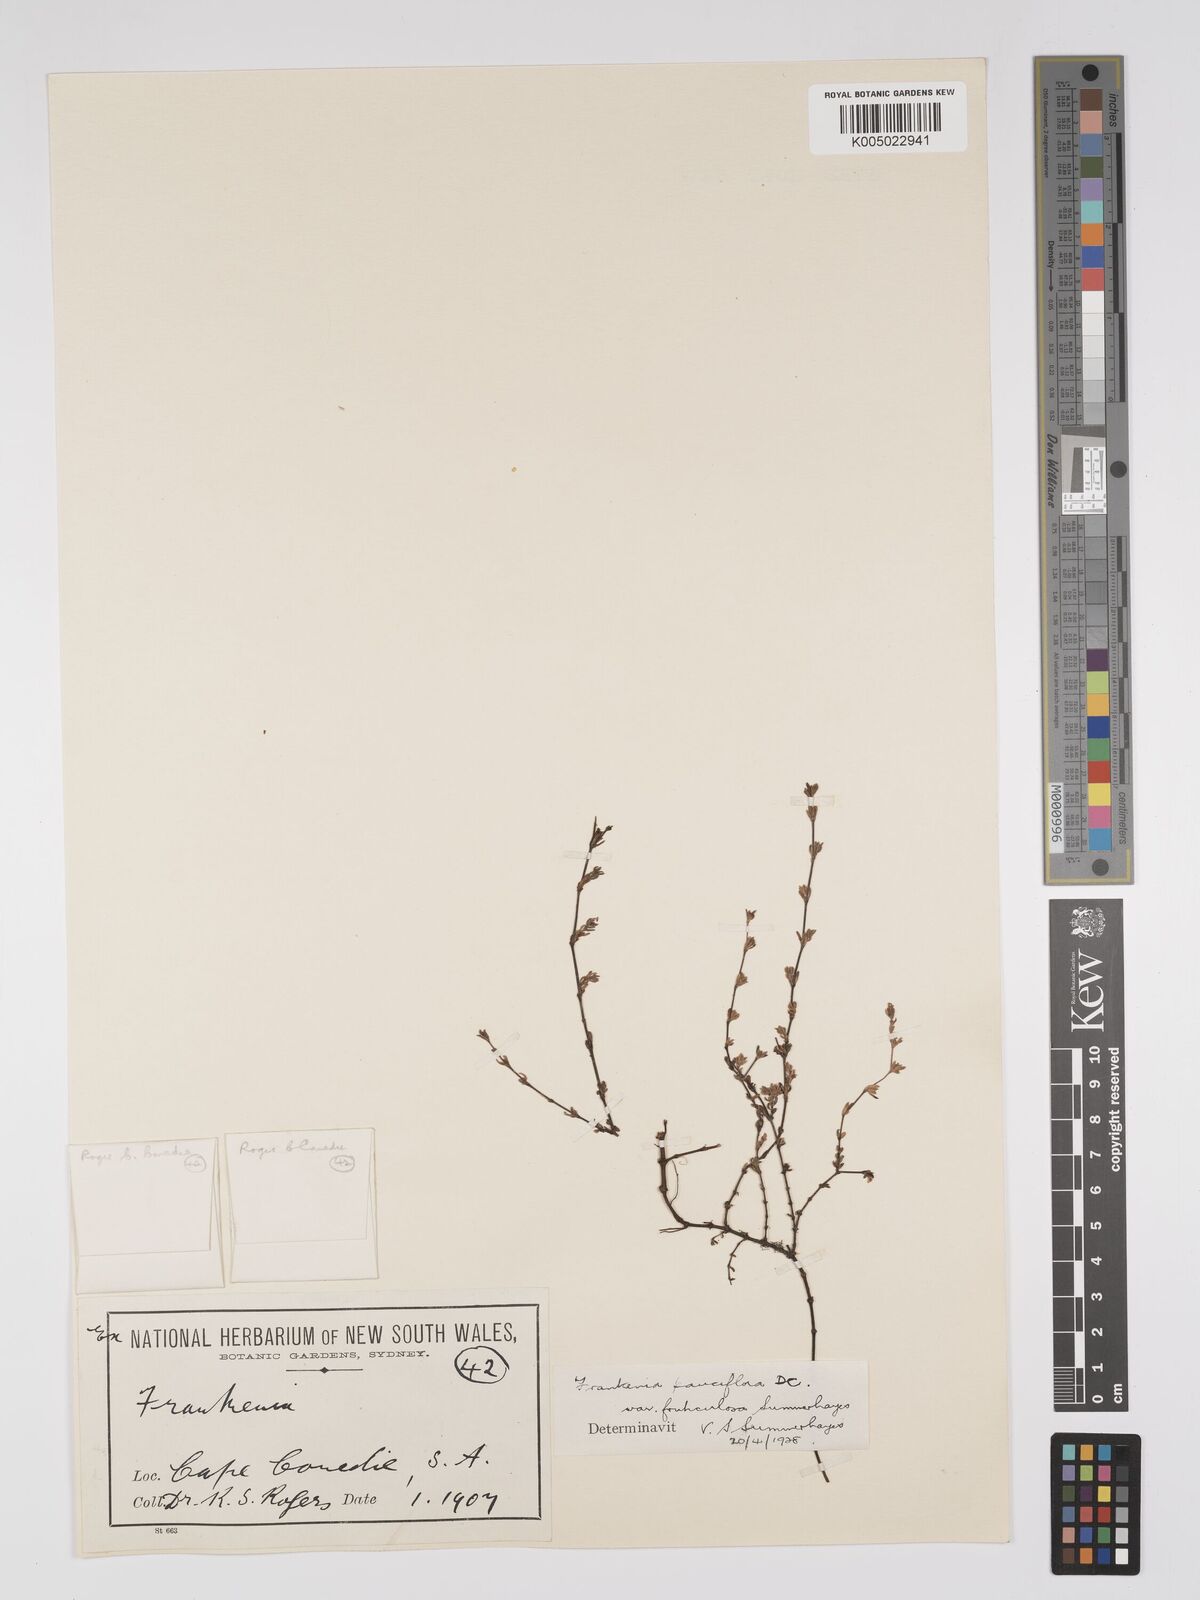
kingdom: Plantae
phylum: Tracheophyta
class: Magnoliopsida
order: Caryophyllales
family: Frankeniaceae
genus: Frankenia
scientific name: Frankenia pauciflora
